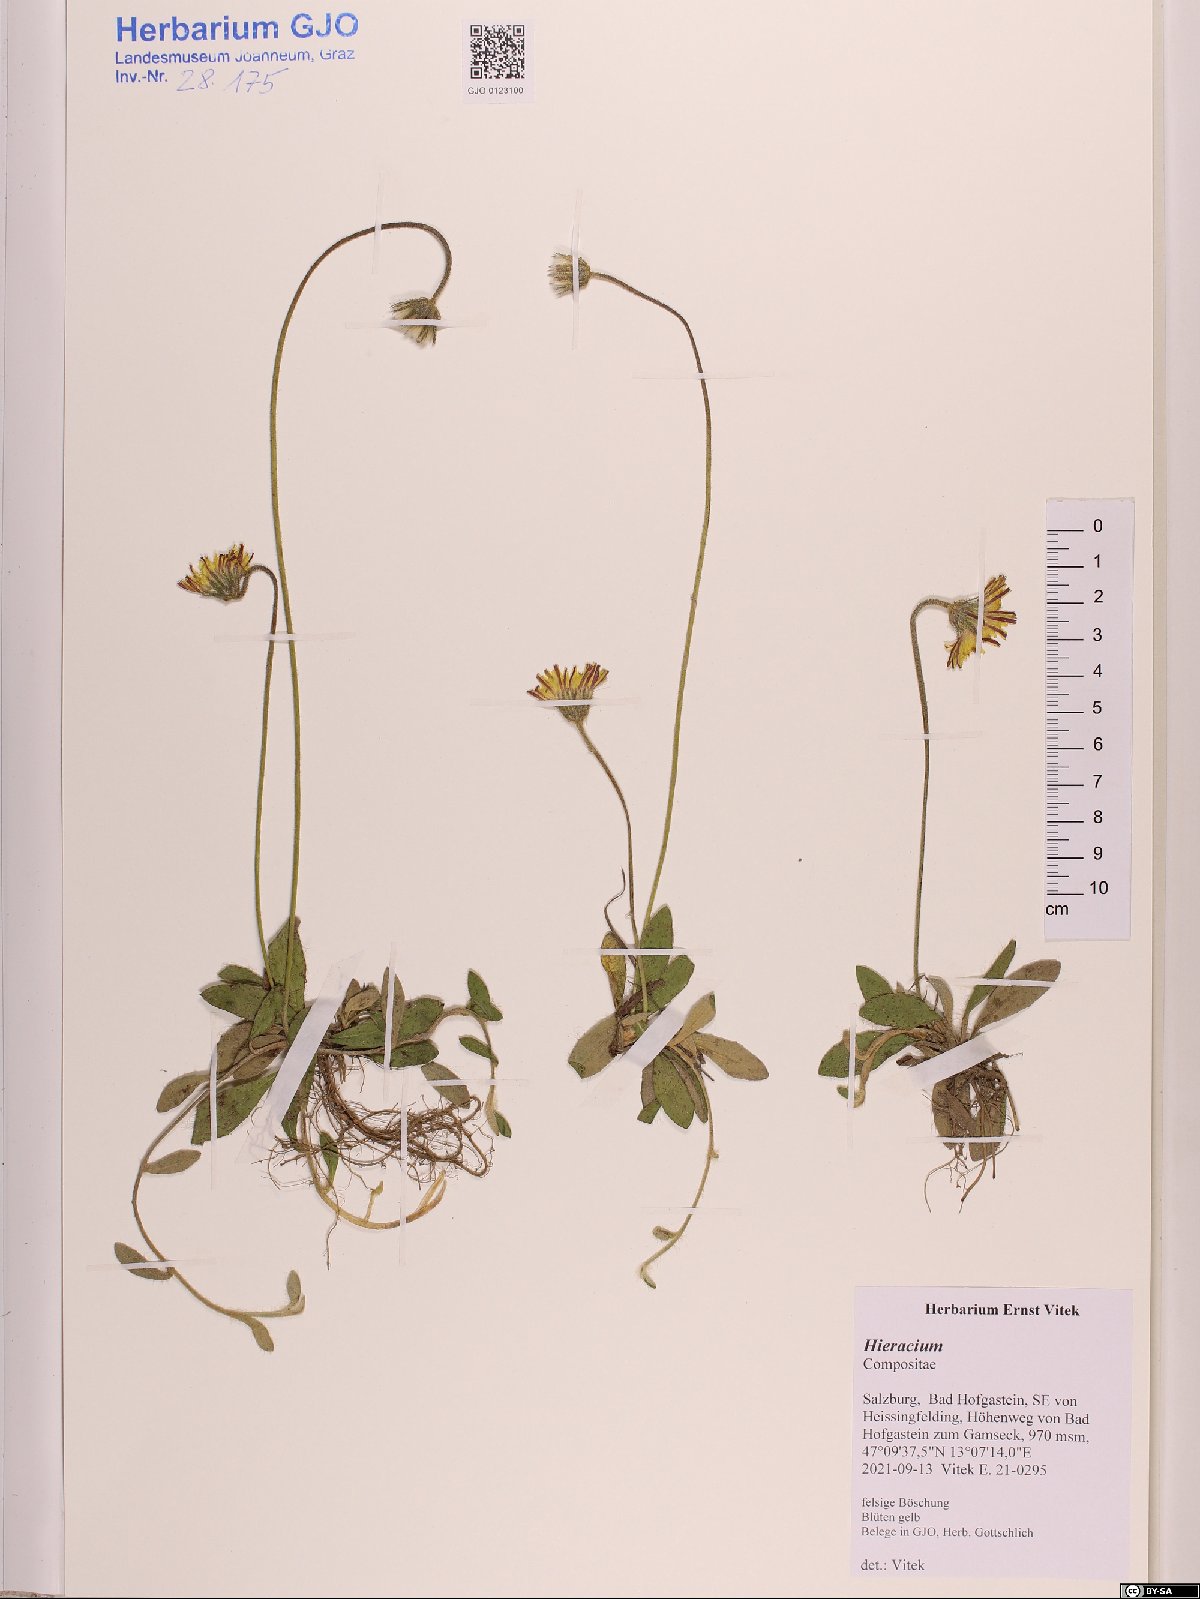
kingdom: Plantae
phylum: Tracheophyta
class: Magnoliopsida
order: Asterales
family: Asteraceae
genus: Hieracium
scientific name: Hieracium
